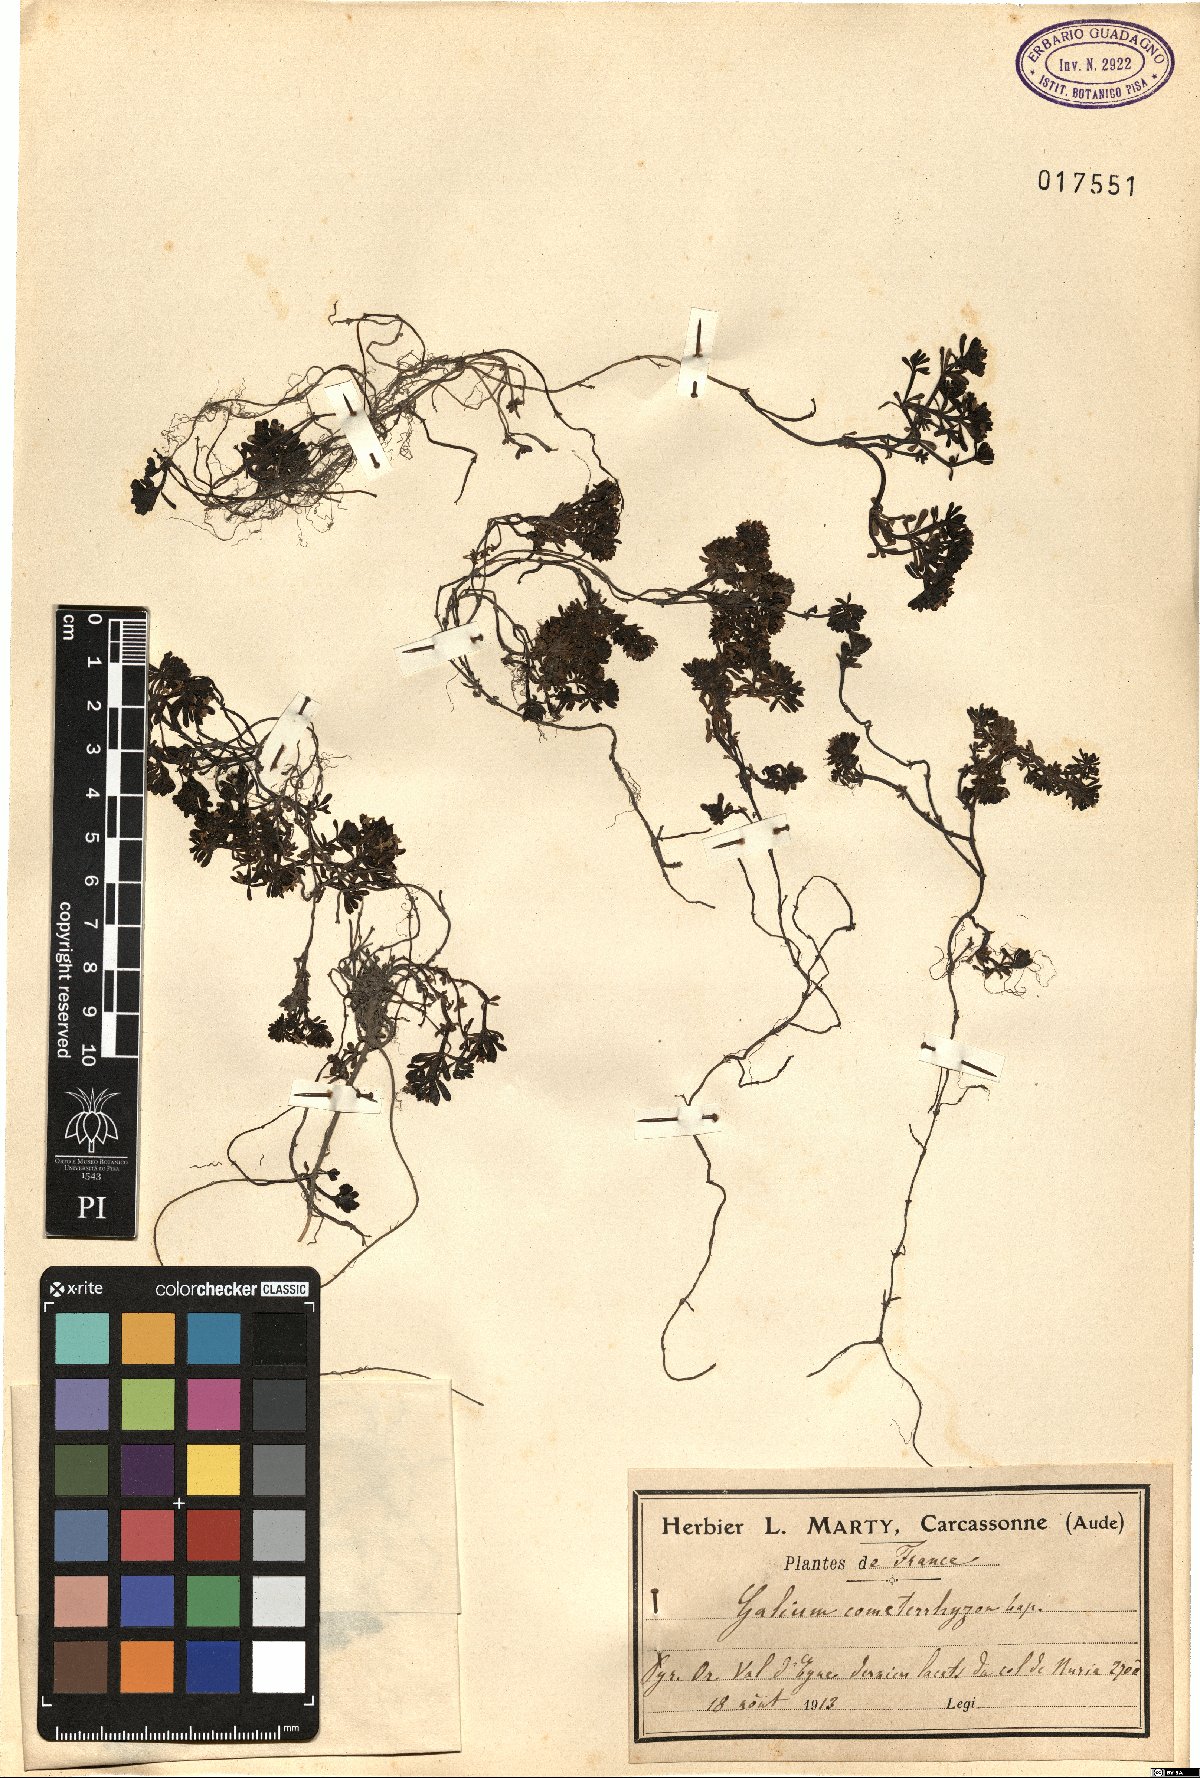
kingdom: Plantae
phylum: Tracheophyta
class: Magnoliopsida
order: Gentianales
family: Rubiaceae
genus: Galium
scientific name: Galium cometerhizon
